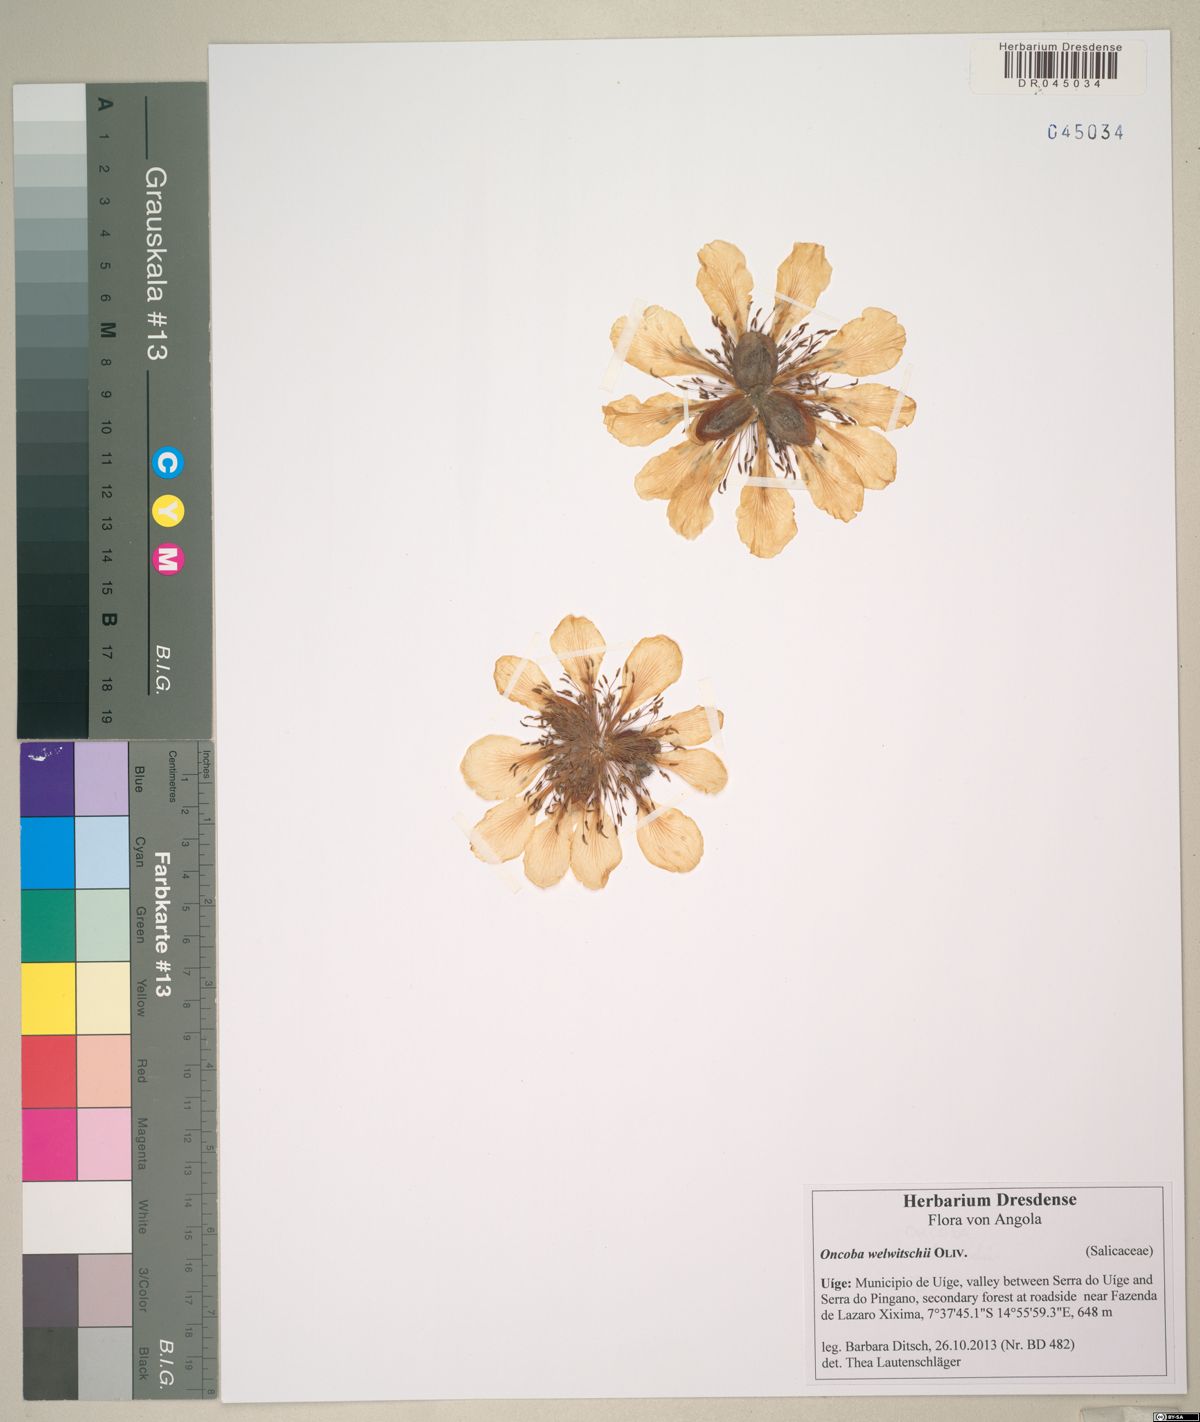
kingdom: Plantae
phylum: Tracheophyta
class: Magnoliopsida
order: Malpighiales
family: Achariaceae
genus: Caloncoba
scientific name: Caloncoba welwitschii
